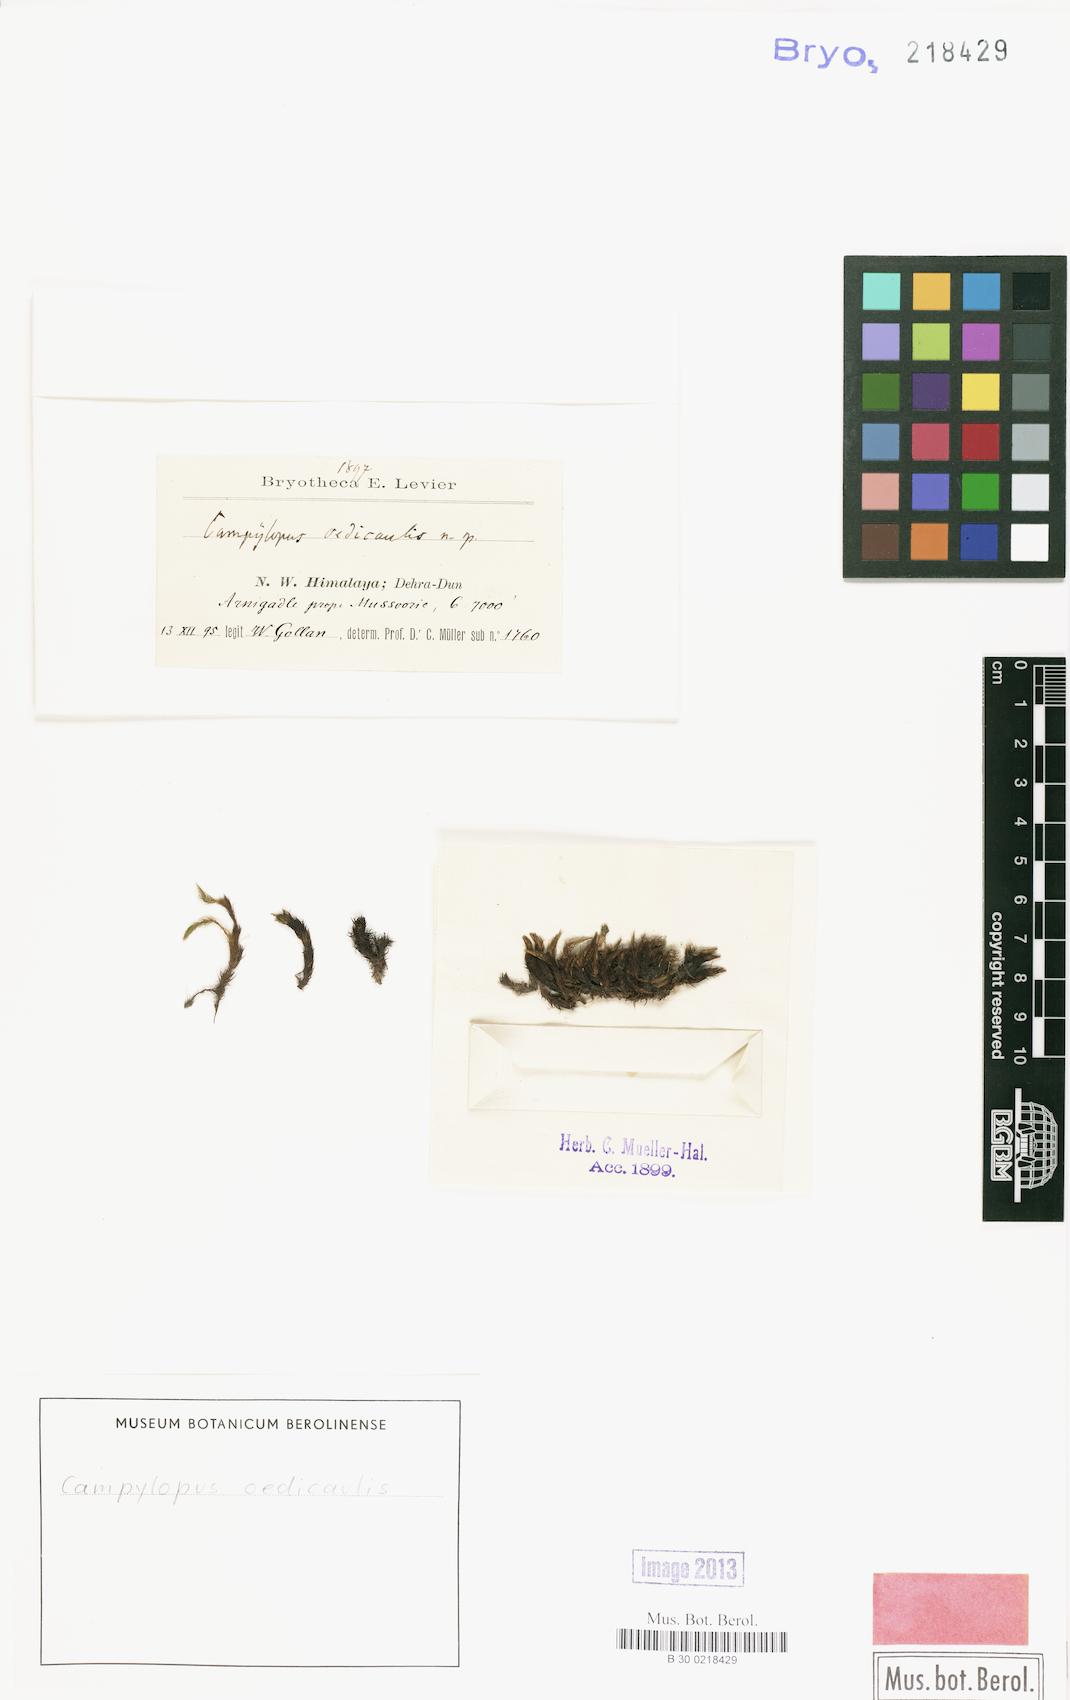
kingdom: Plantae
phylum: Bryophyta
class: Bryopsida
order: Dicranales
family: Leucobryaceae
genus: Campylopus
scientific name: Campylopus umbellatus
